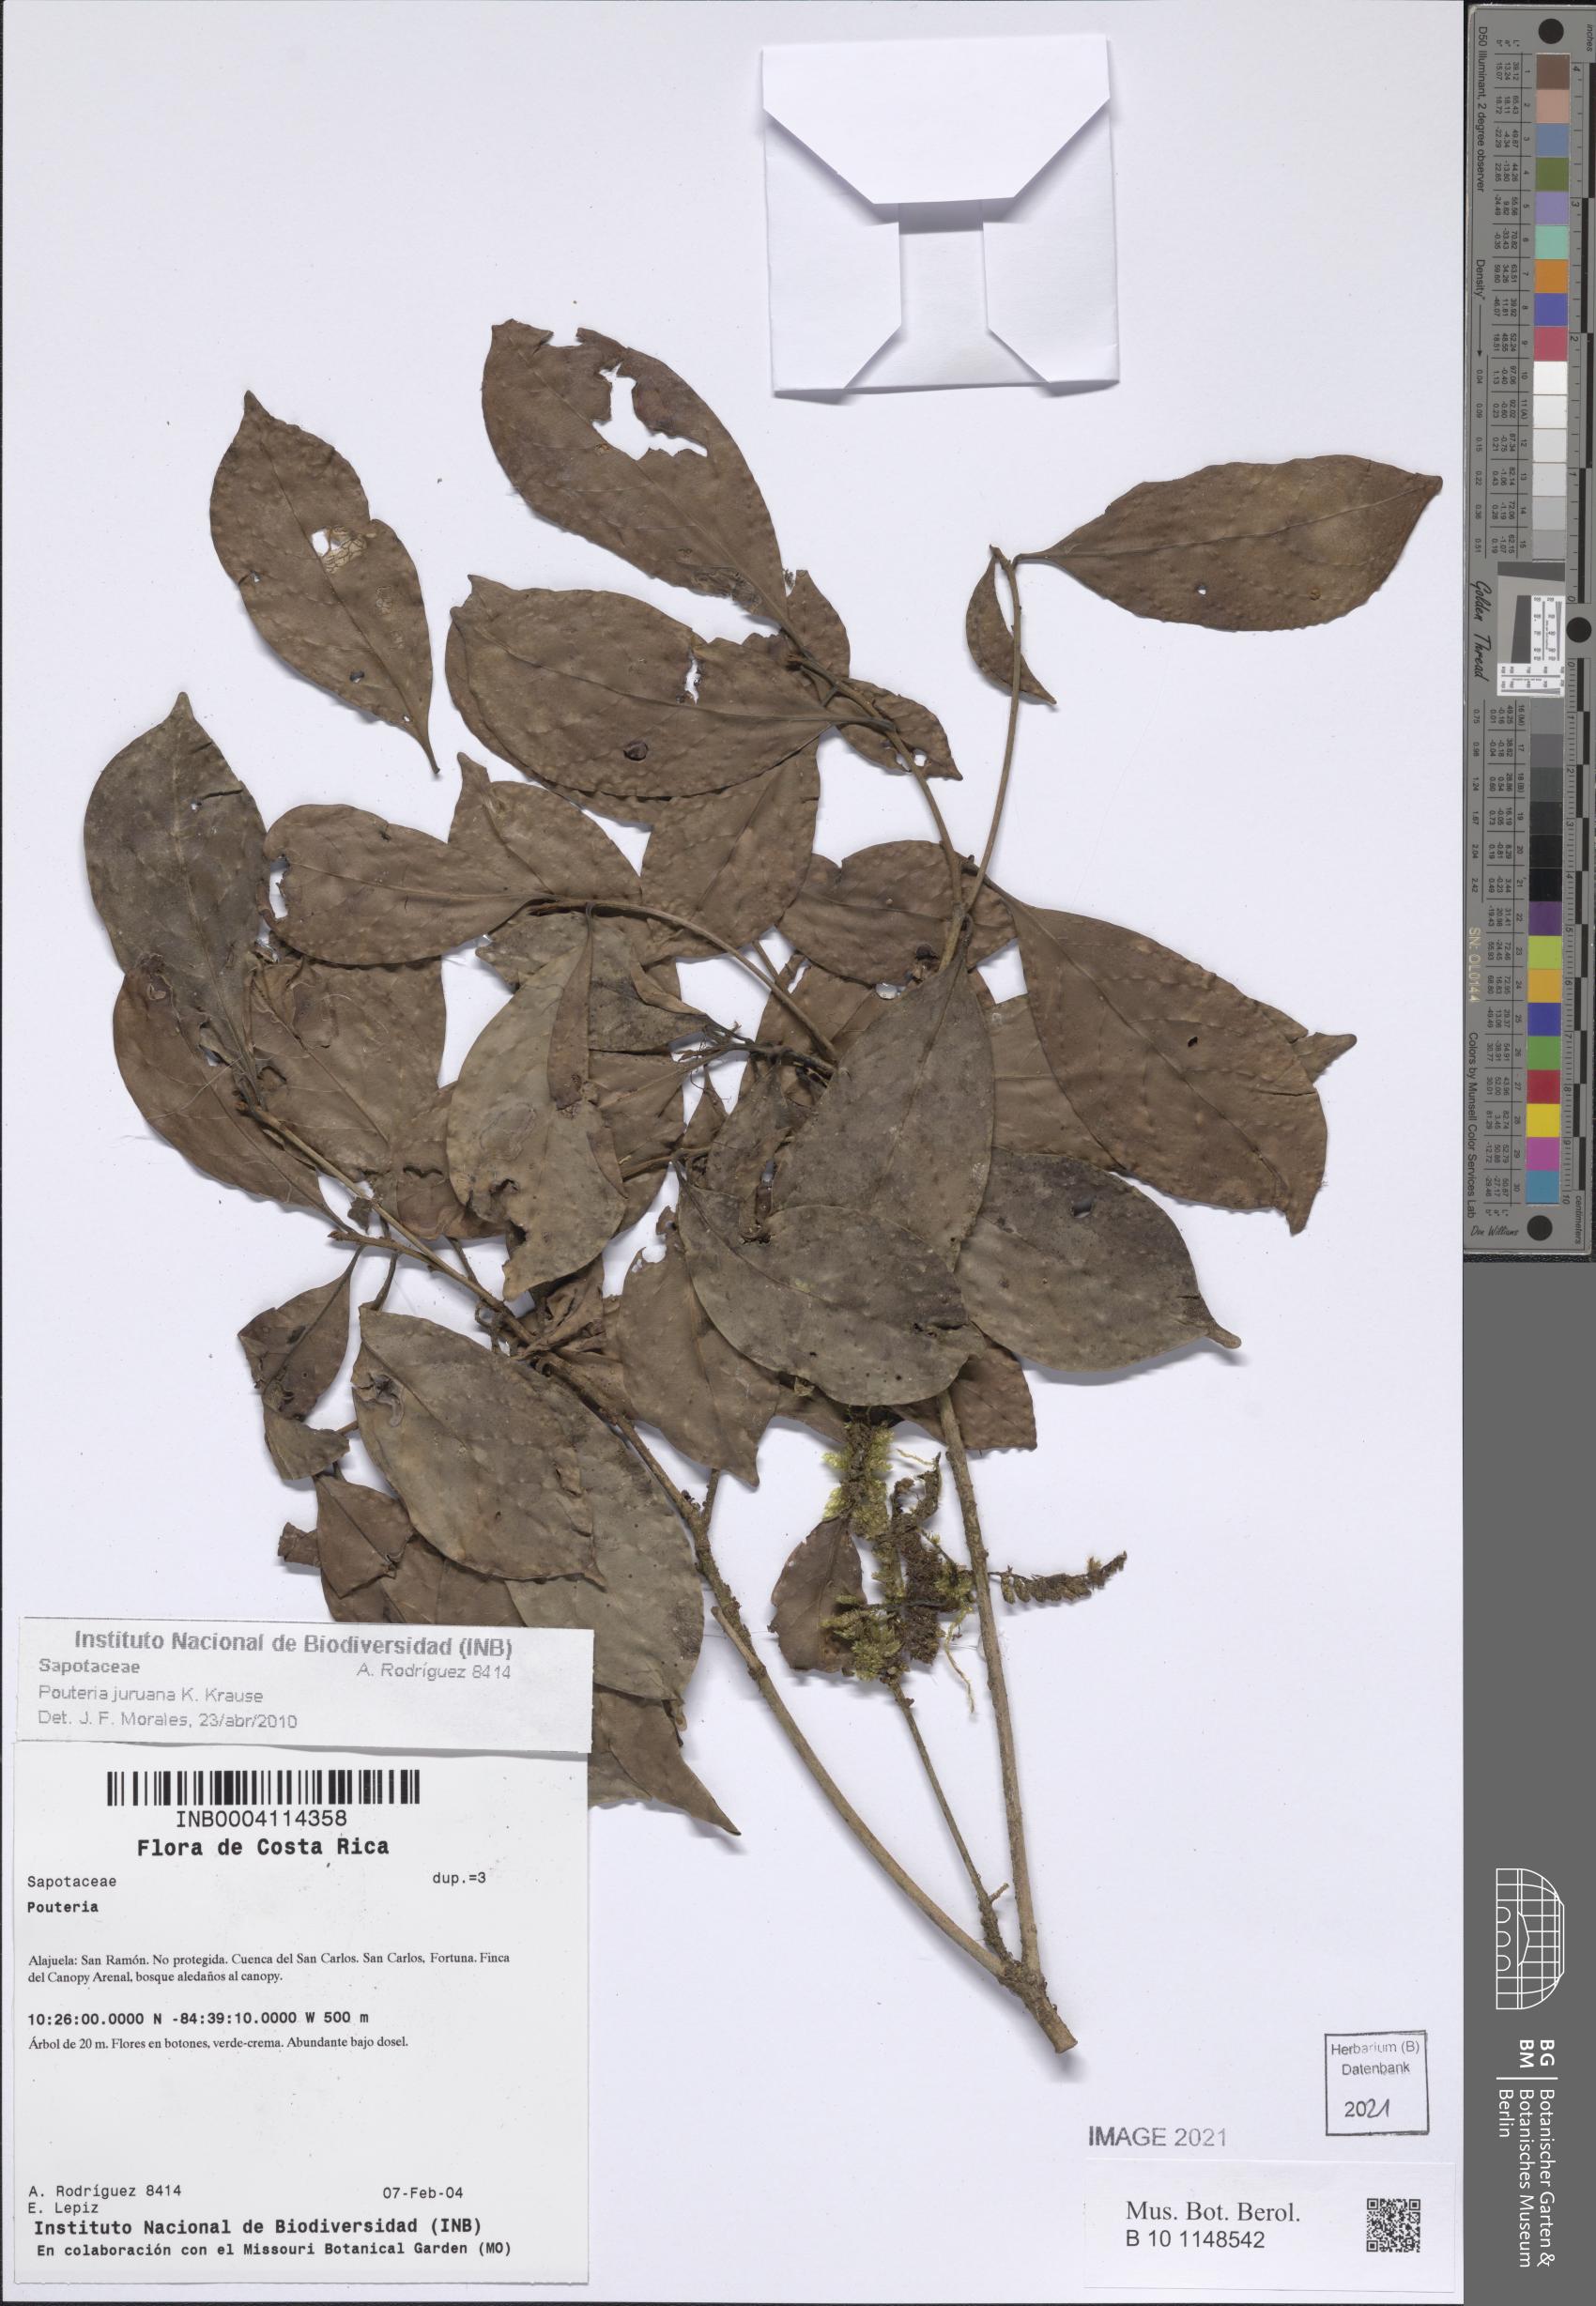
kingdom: Plantae
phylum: Tracheophyta
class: Magnoliopsida
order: Ericales
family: Sapotaceae
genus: Pouteria
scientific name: Pouteria juruana
